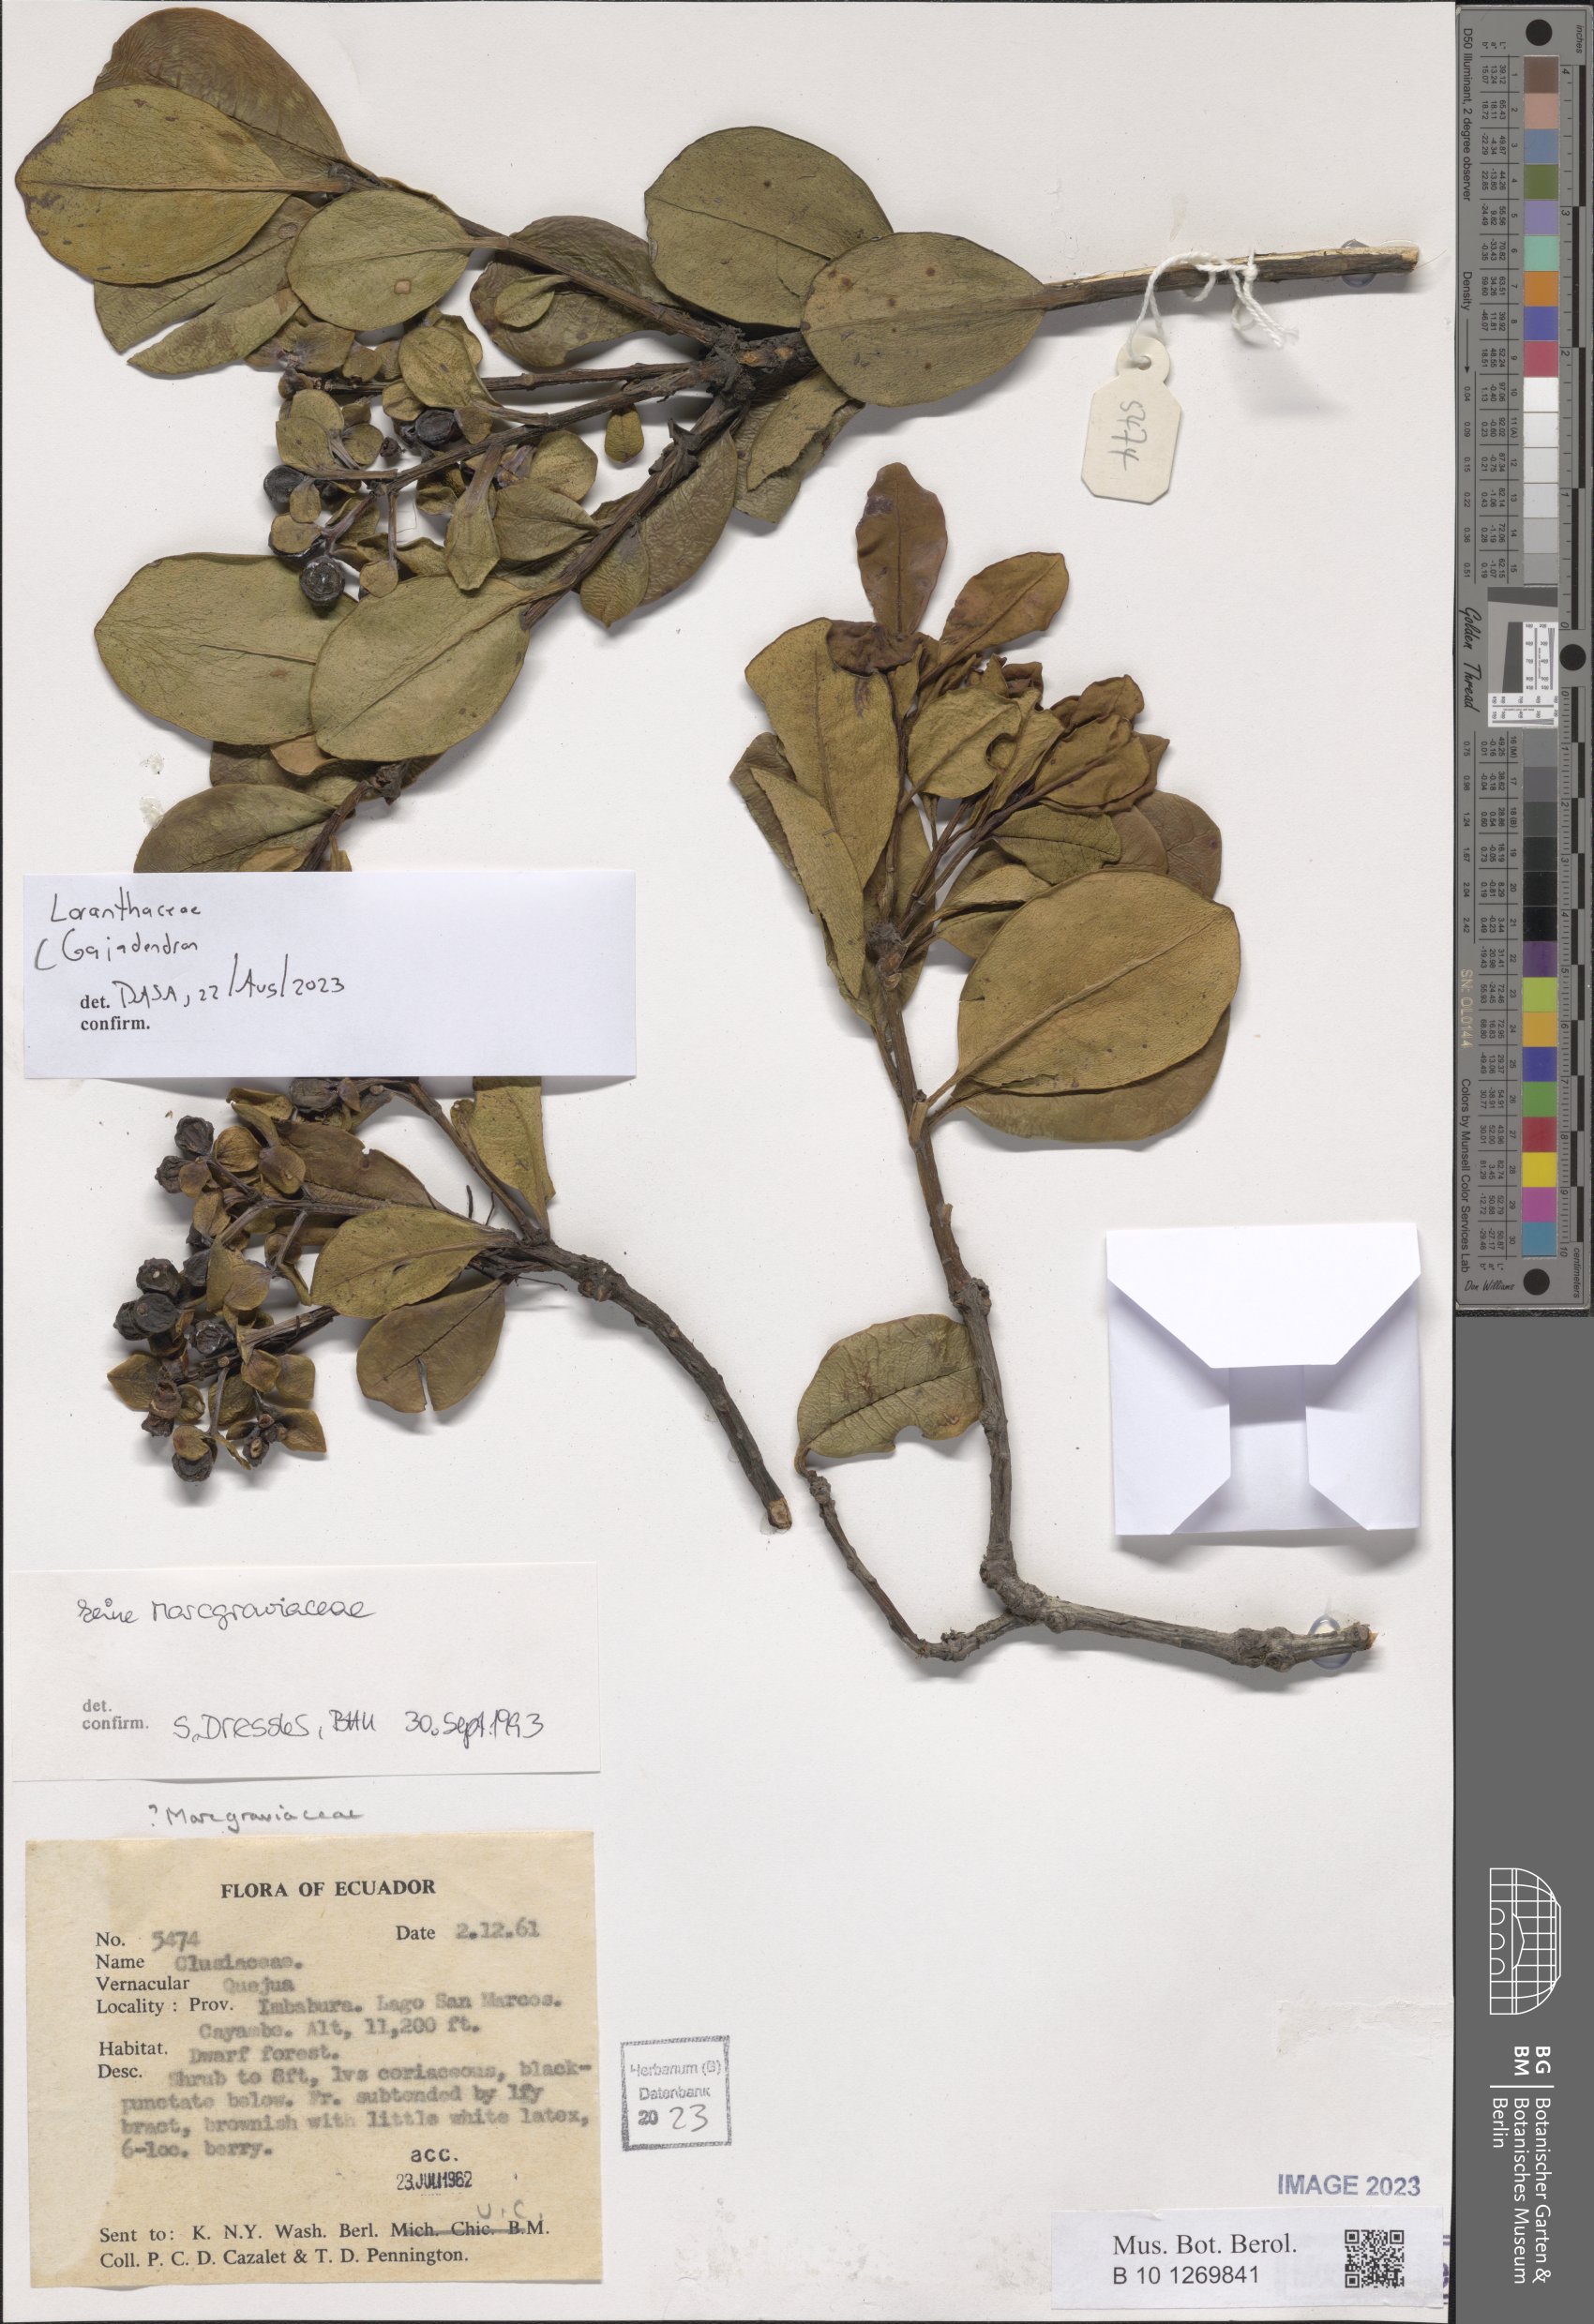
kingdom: Plantae
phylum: Tracheophyta
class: Magnoliopsida
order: Santalales
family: Loranthaceae
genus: Gaiadendron
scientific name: Gaiadendron
